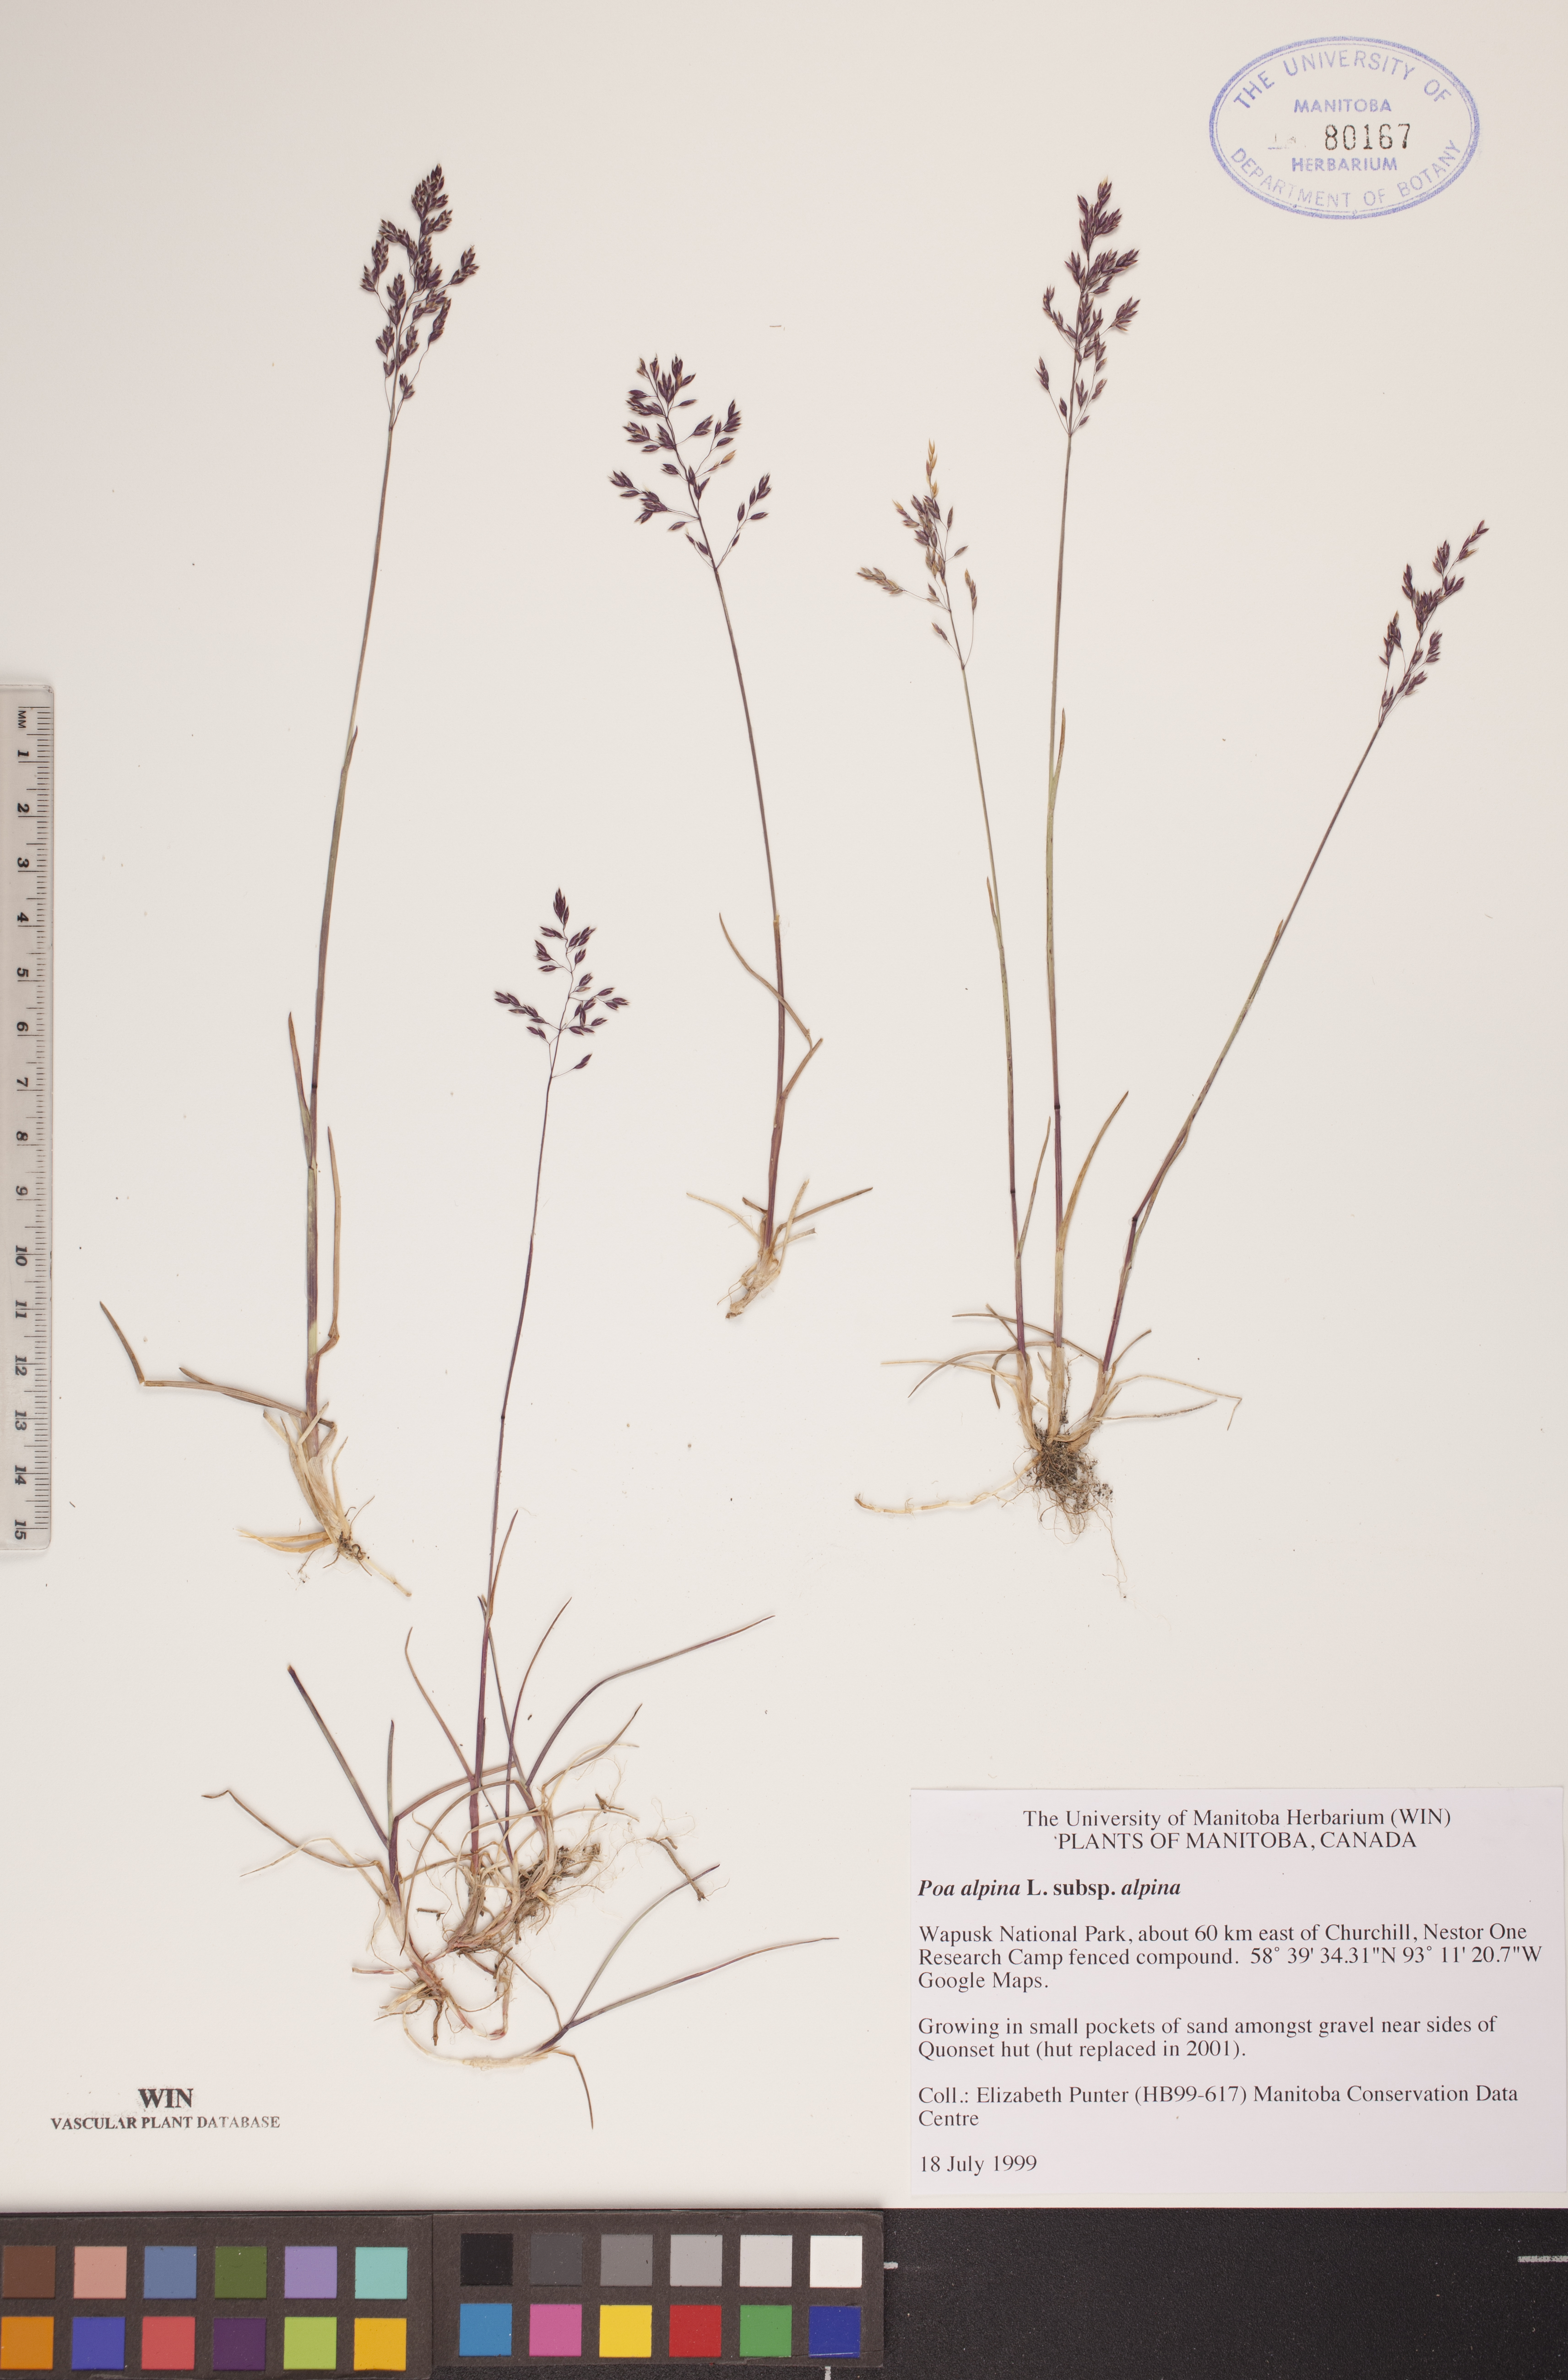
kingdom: Plantae
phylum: Tracheophyta
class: Liliopsida
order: Poales
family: Poaceae
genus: Poa
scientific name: Poa alpina
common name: Alpine bluegrass
